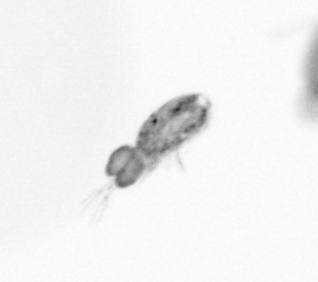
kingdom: Animalia
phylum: Arthropoda
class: Copepoda
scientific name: Copepoda
